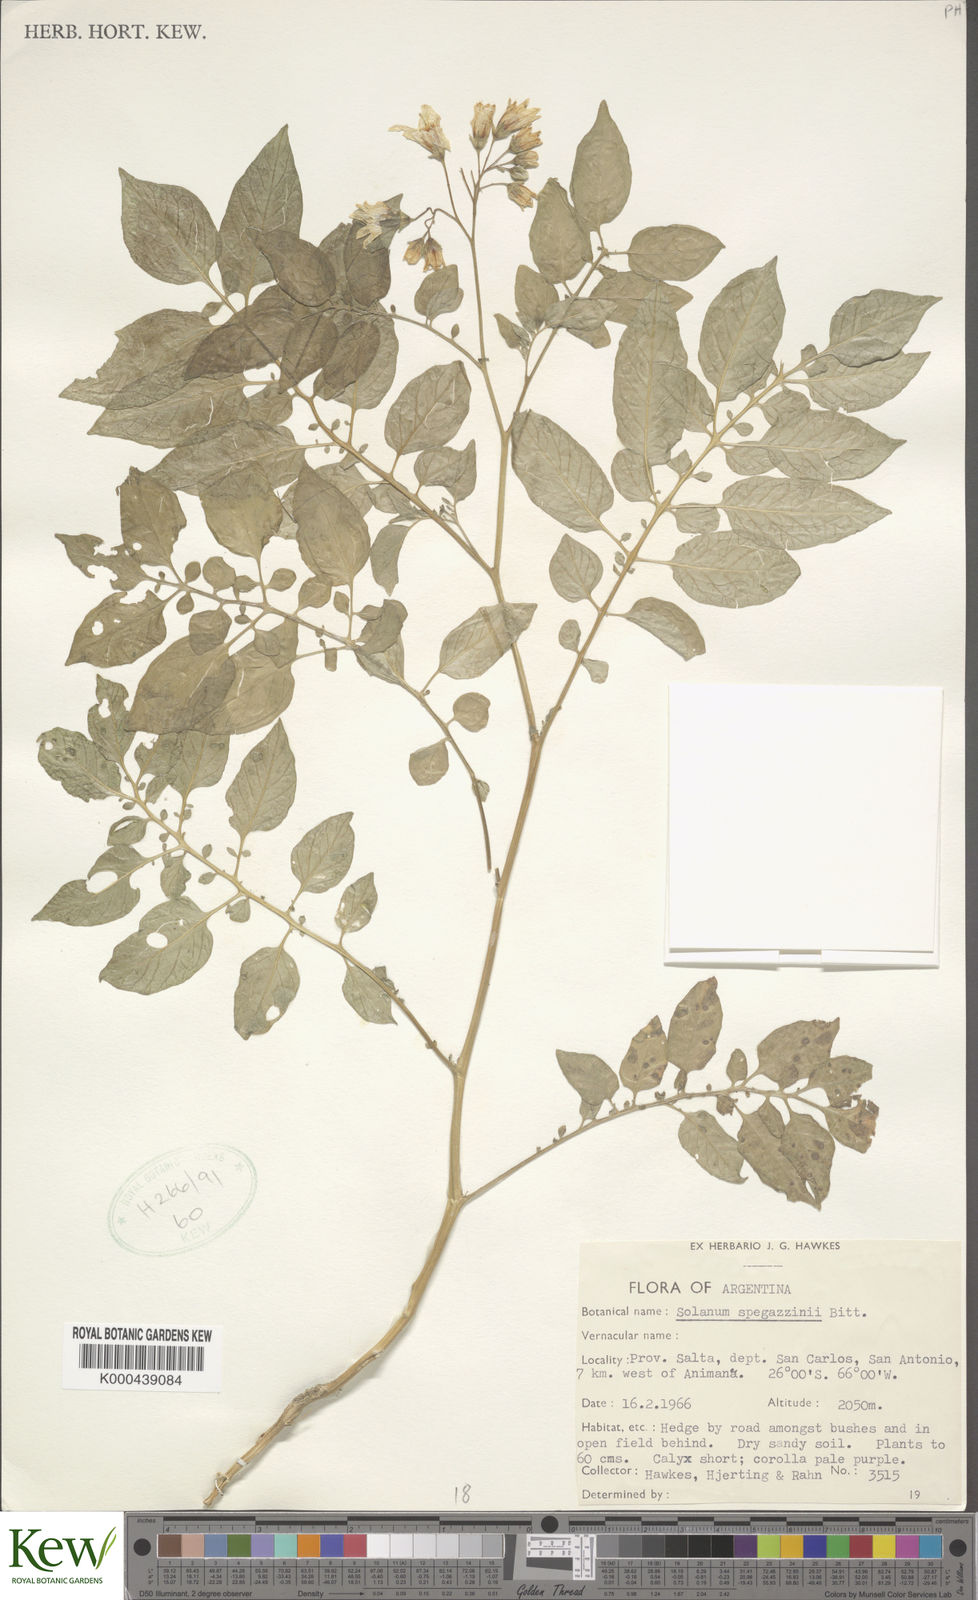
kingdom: Plantae
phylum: Tracheophyta
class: Magnoliopsida
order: Solanales
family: Solanaceae
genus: Solanum
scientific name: Solanum brevicaule
